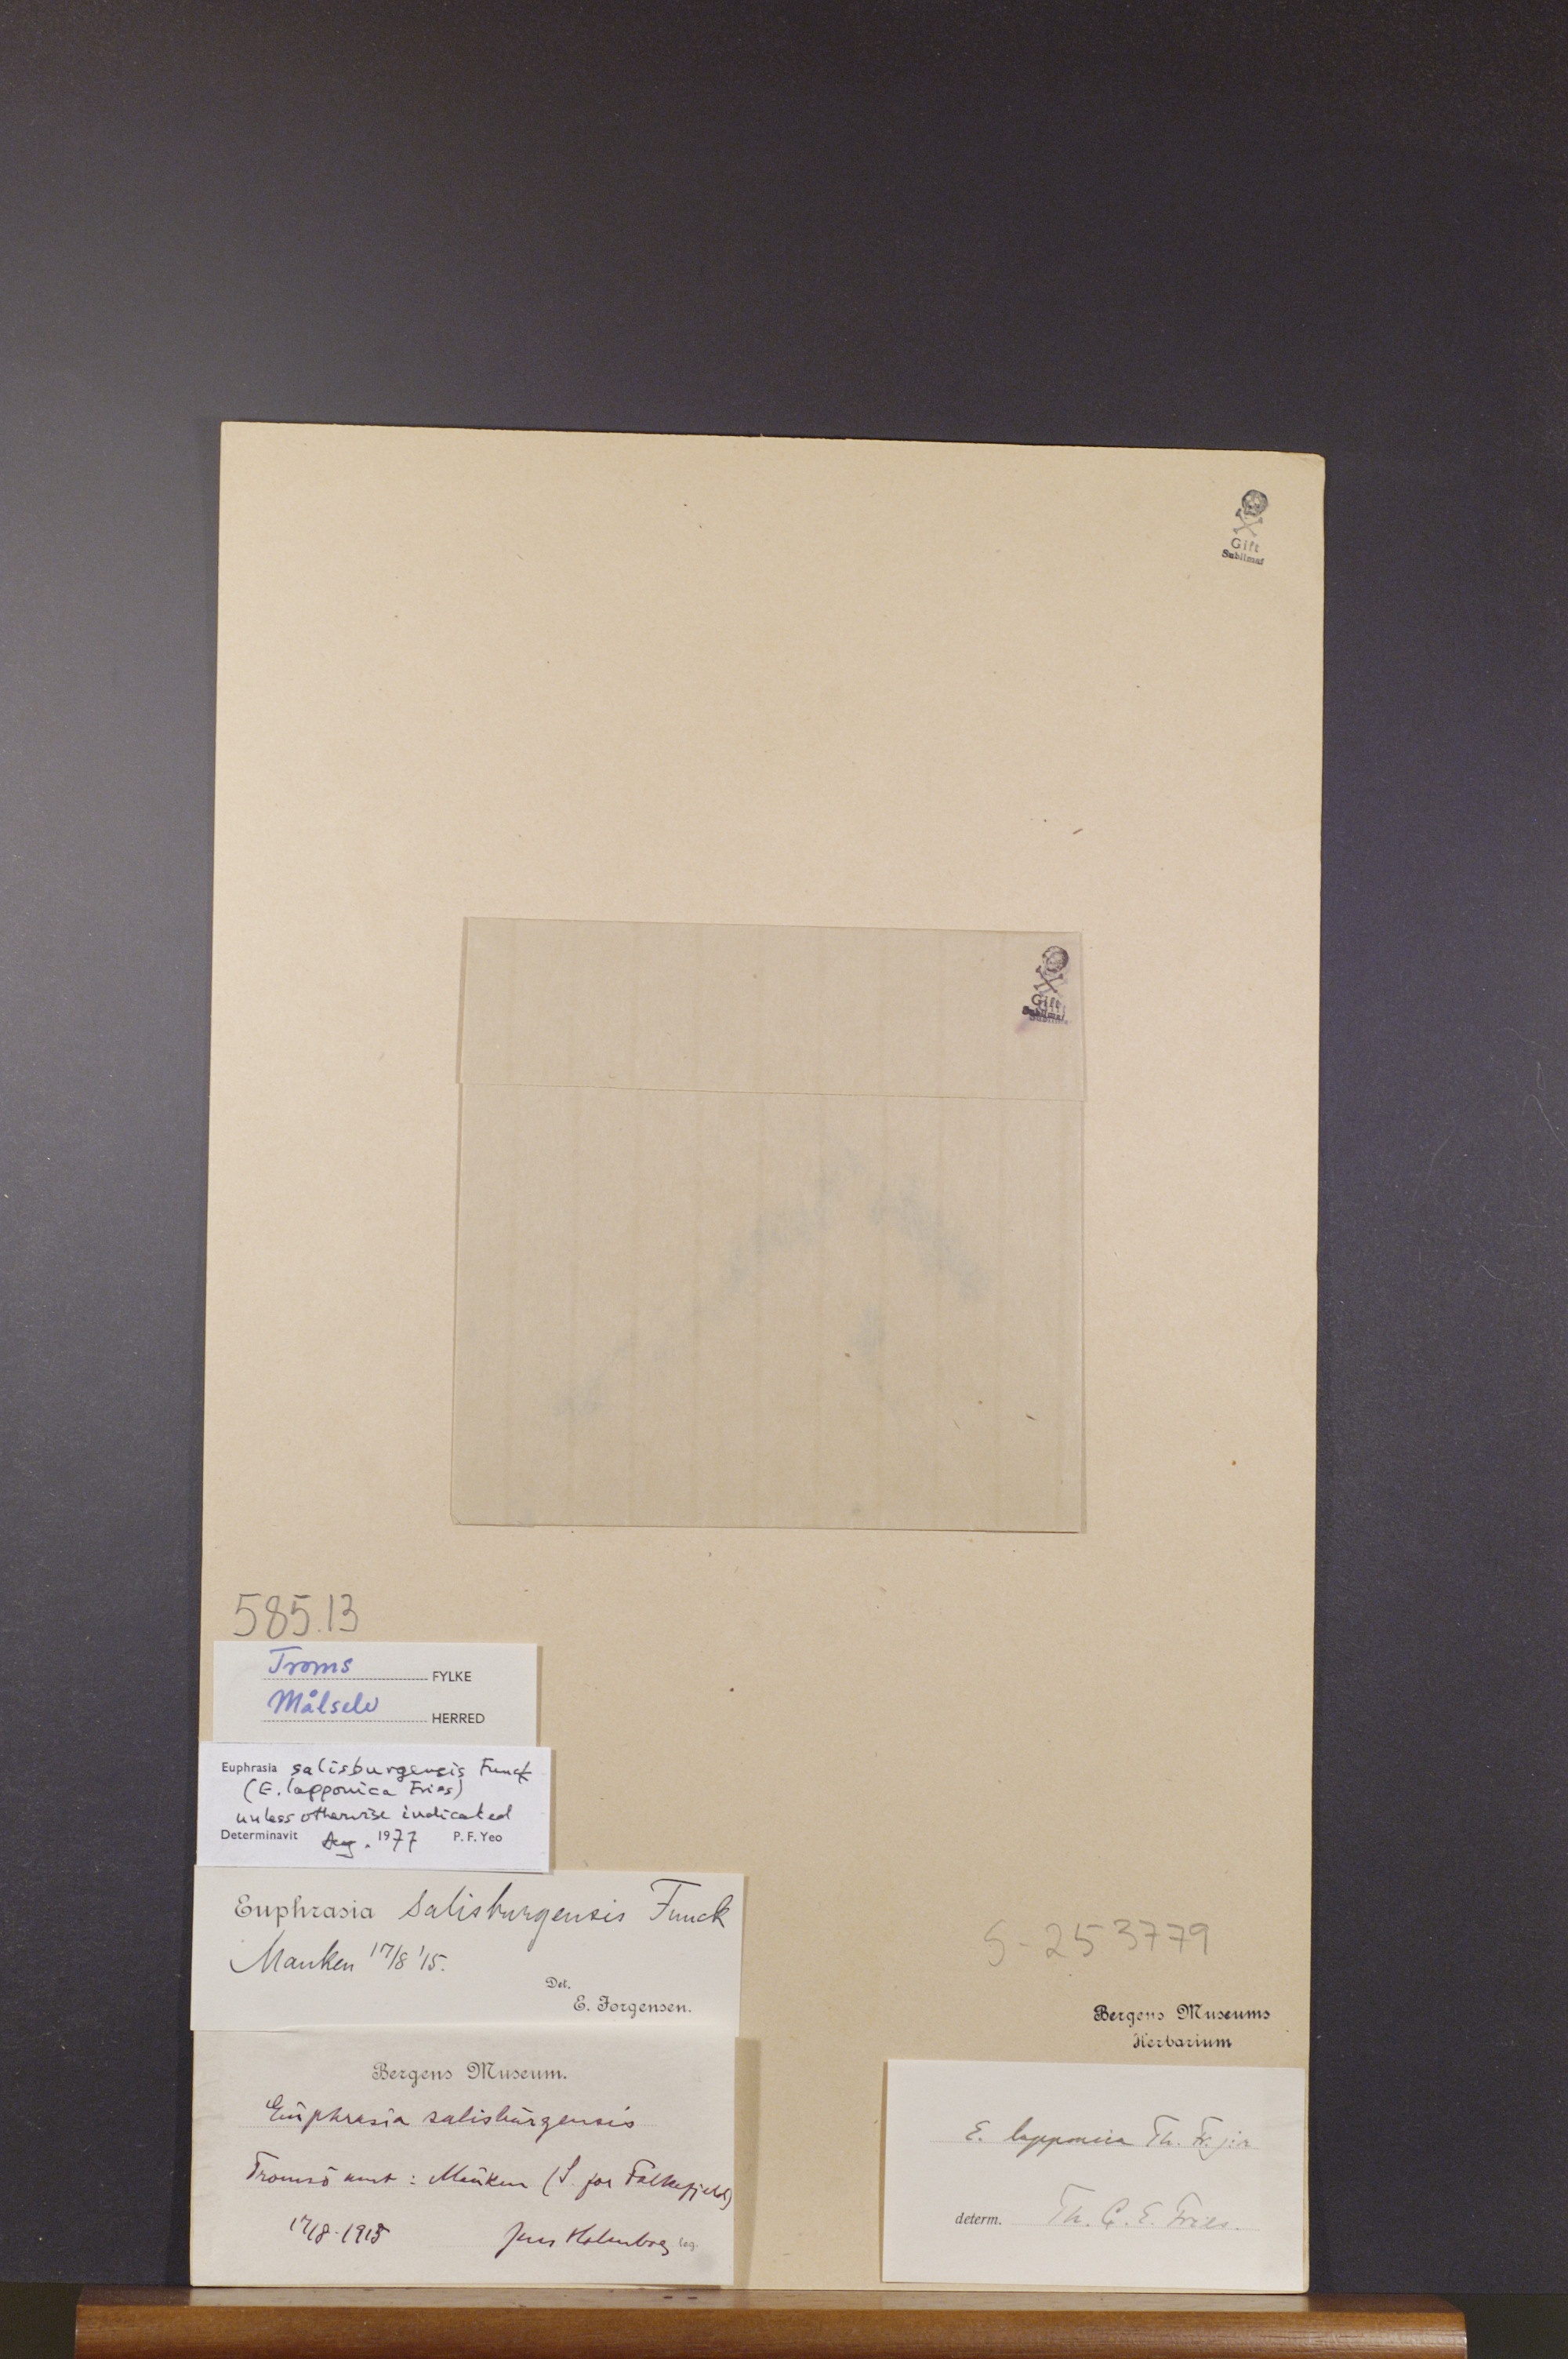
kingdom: Plantae
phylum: Tracheophyta
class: Magnoliopsida
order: Lamiales
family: Orobanchaceae
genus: Euphrasia
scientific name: Euphrasia salisburgensis
